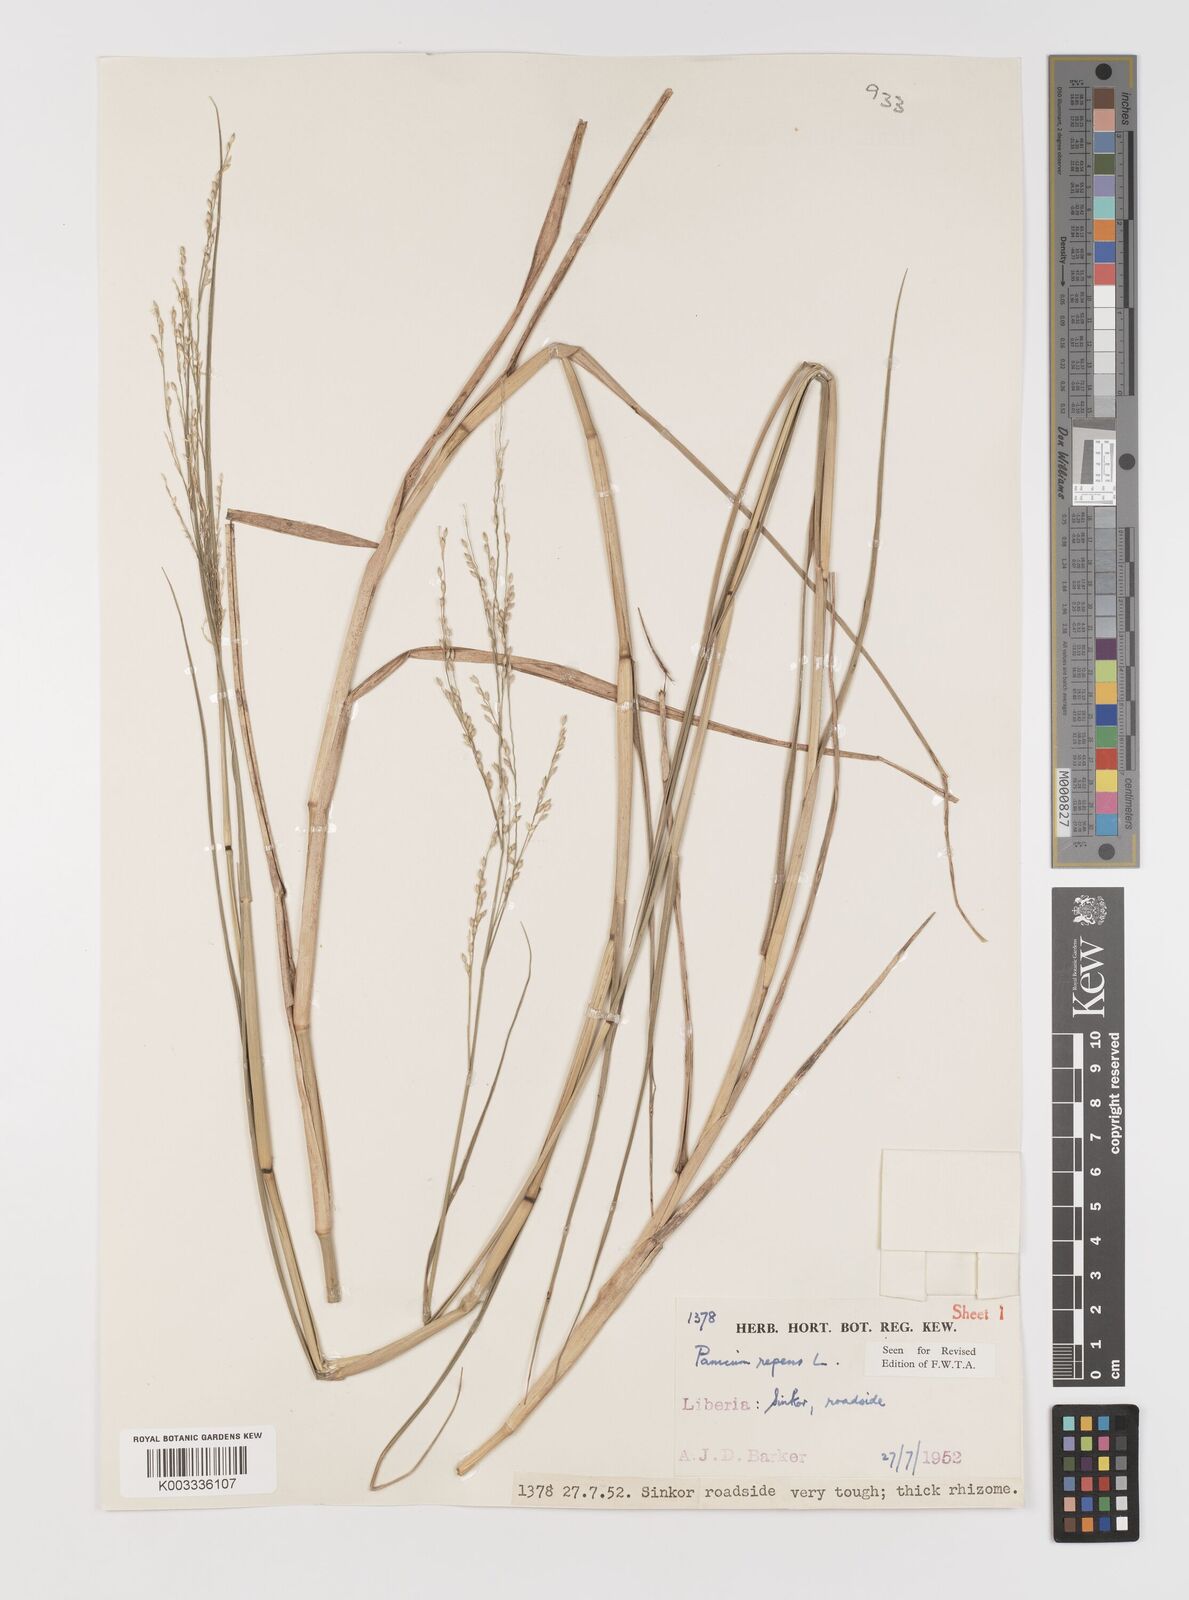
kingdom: Plantae
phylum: Tracheophyta
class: Liliopsida
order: Poales
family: Poaceae
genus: Panicum
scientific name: Panicum repens
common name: Torpedo grass
